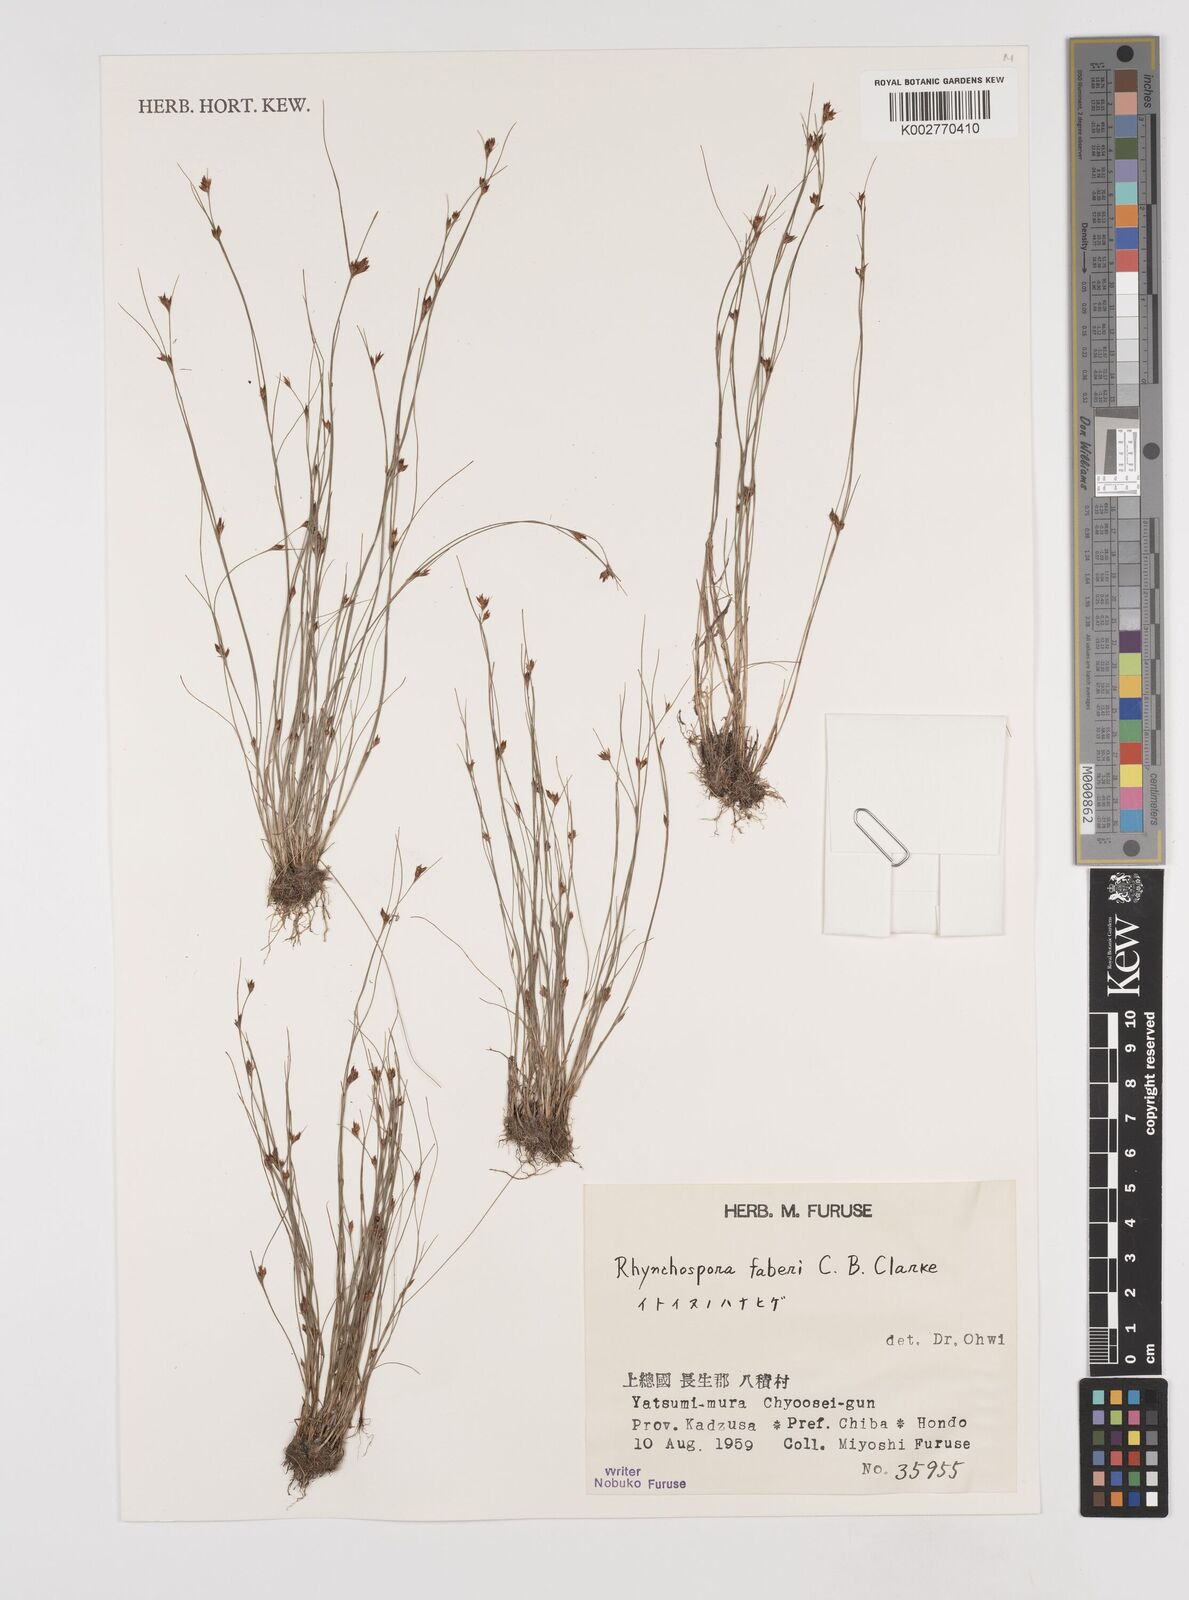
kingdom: Plantae
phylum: Tracheophyta
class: Liliopsida
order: Poales
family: Cyperaceae
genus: Rhynchospora
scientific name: Rhynchospora faberi
